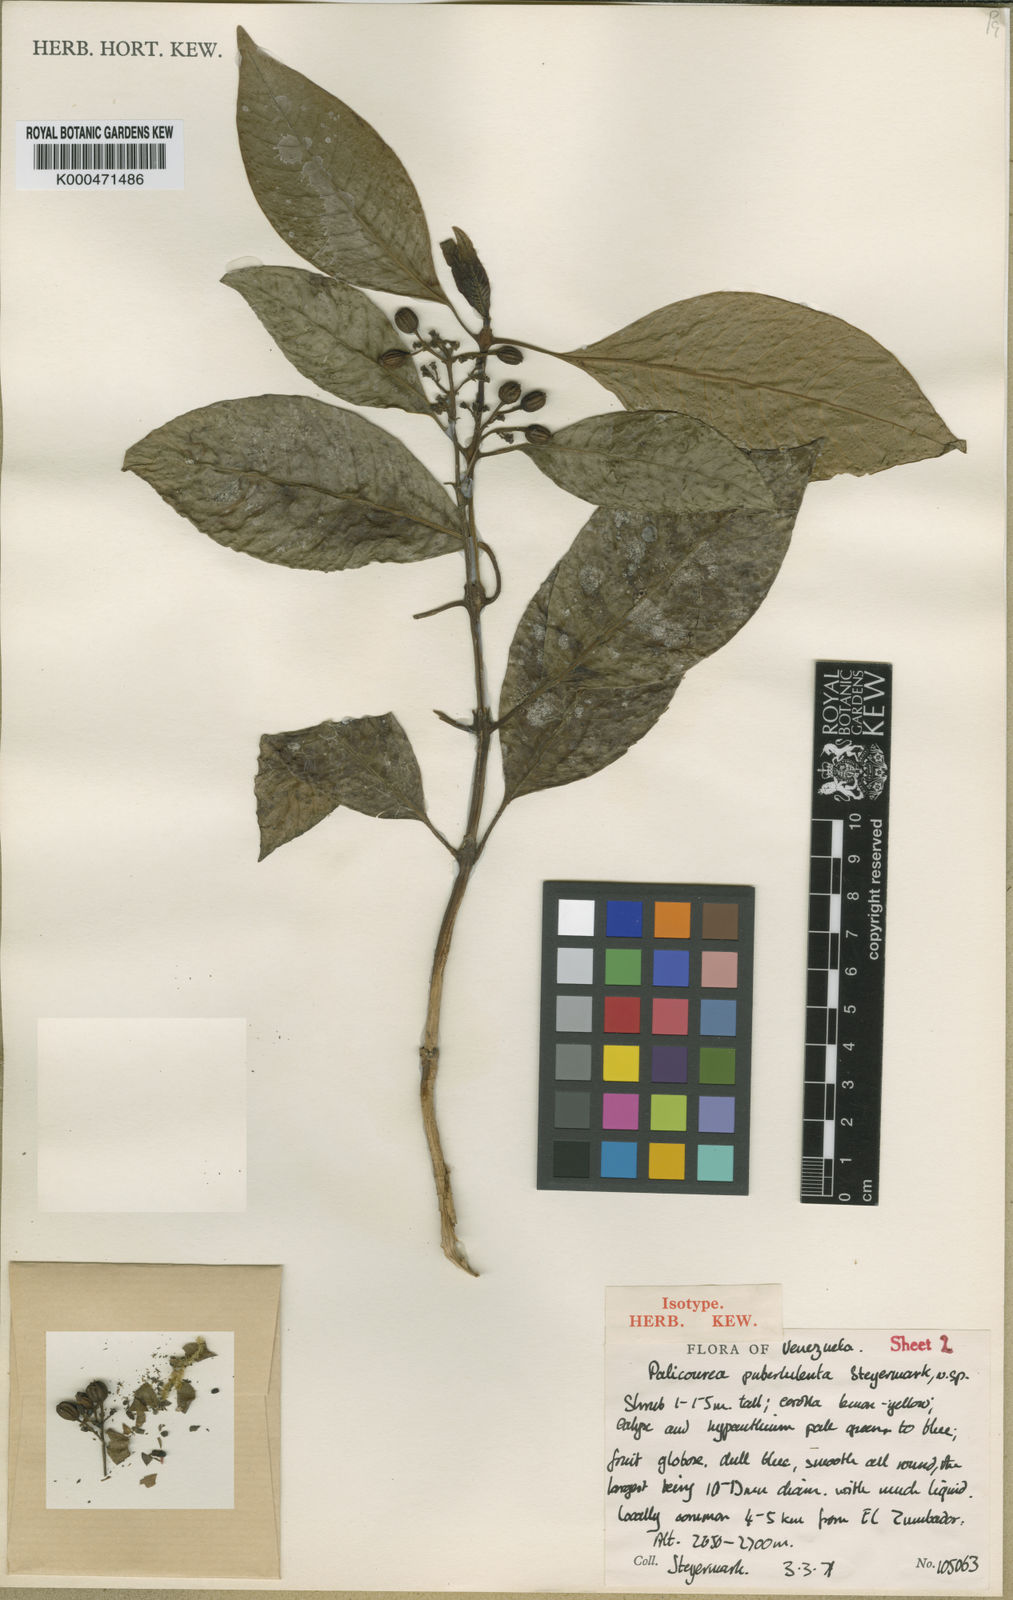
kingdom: Plantae
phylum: Tracheophyta
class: Magnoliopsida
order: Gentianales
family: Rubiaceae
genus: Palicourea
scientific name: Palicourea sulphurea
